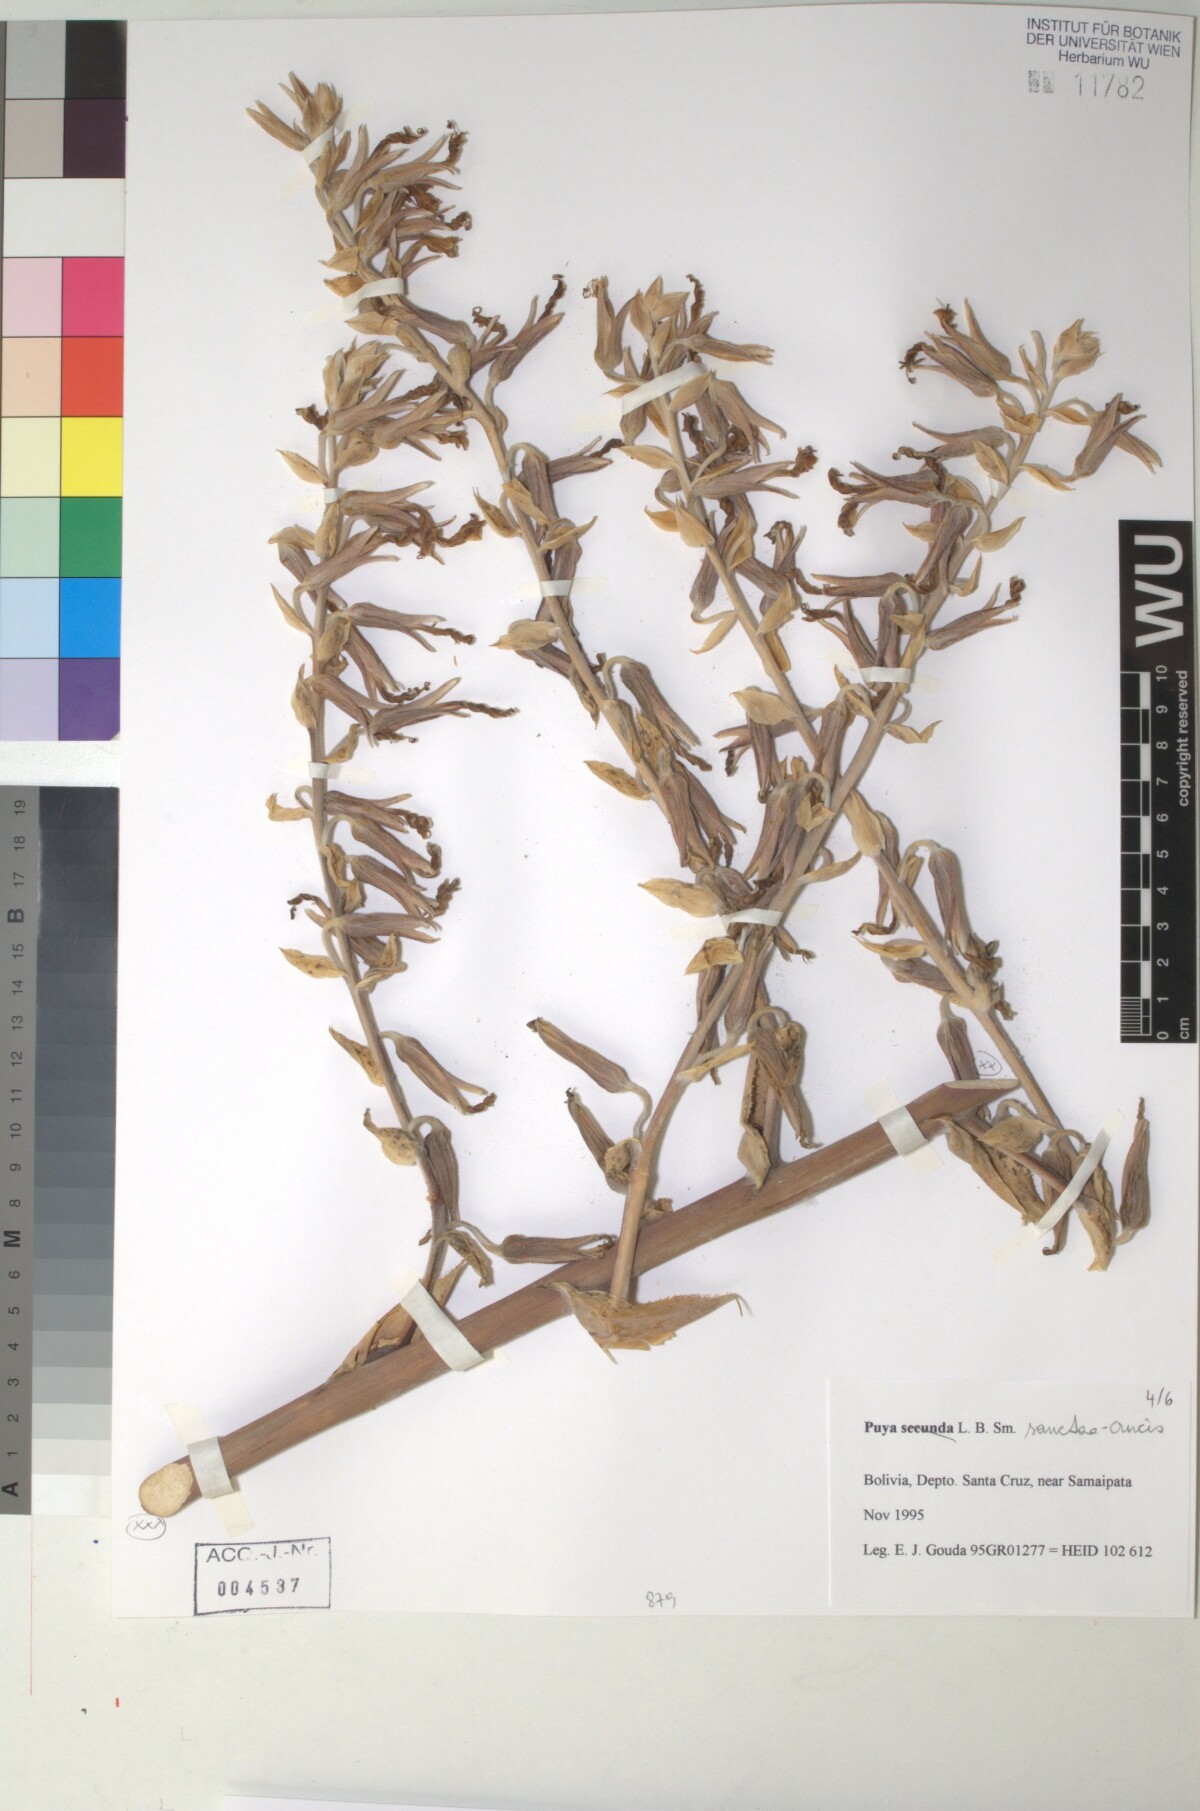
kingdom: Plantae
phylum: Tracheophyta
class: Liliopsida
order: Poales
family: Bromeliaceae
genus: Puya
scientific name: Puya secunda
